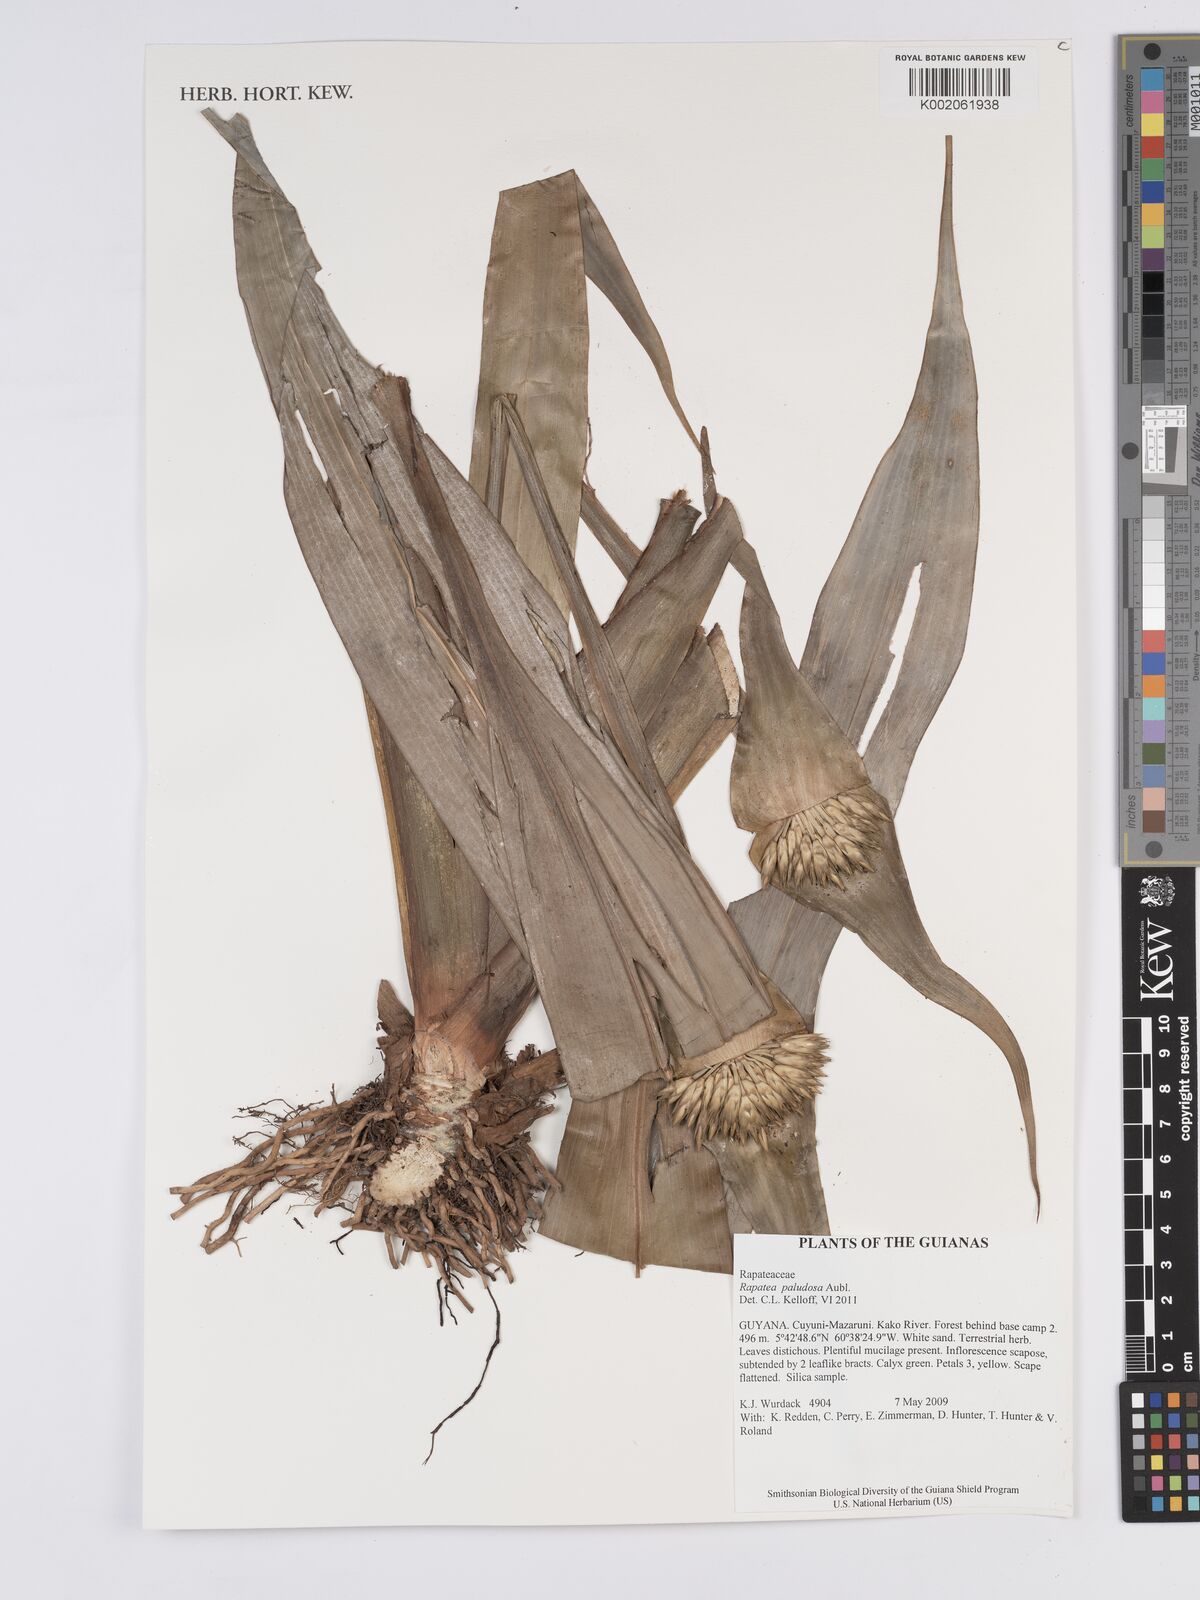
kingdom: Plantae
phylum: Tracheophyta
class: Liliopsida
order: Poales
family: Rapateaceae
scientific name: Rapateaceae
